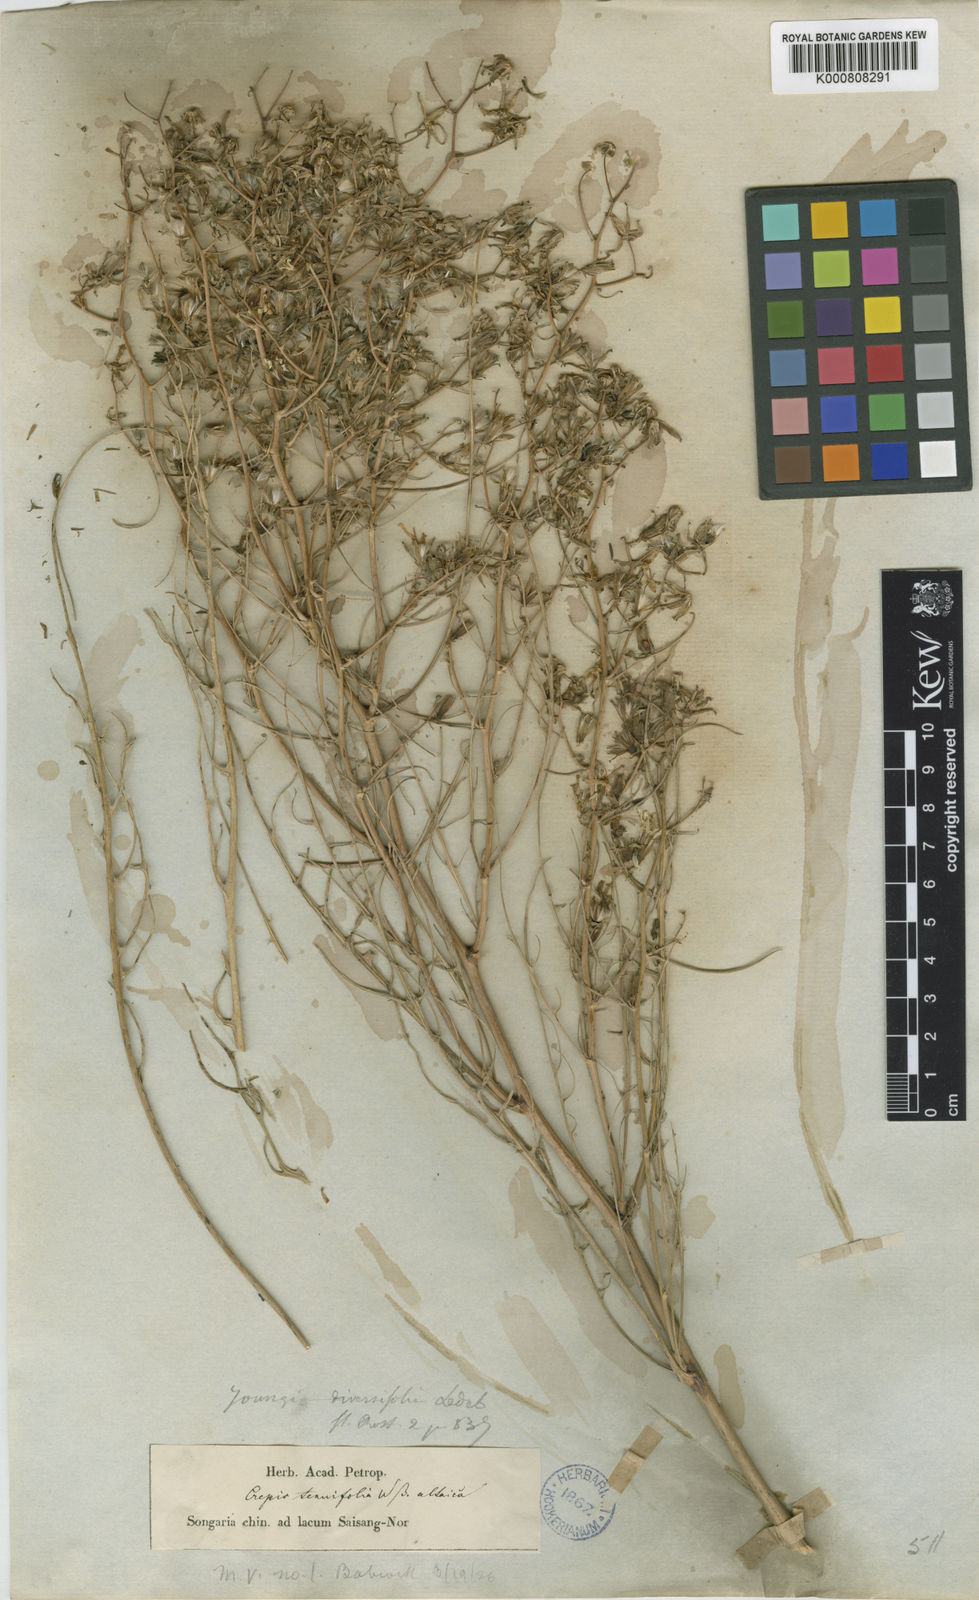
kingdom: Plantae
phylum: Tracheophyta
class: Magnoliopsida
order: Asterales
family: Asteraceae
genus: Crepidiastrum
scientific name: Crepidiastrum tenuifolium
